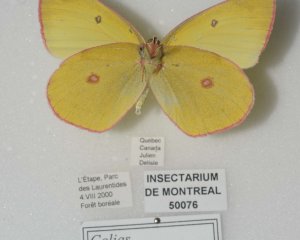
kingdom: Animalia
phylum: Arthropoda
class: Insecta
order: Lepidoptera
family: Pieridae
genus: Colias
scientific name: Colias interior
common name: Pink-edged Sulphur
